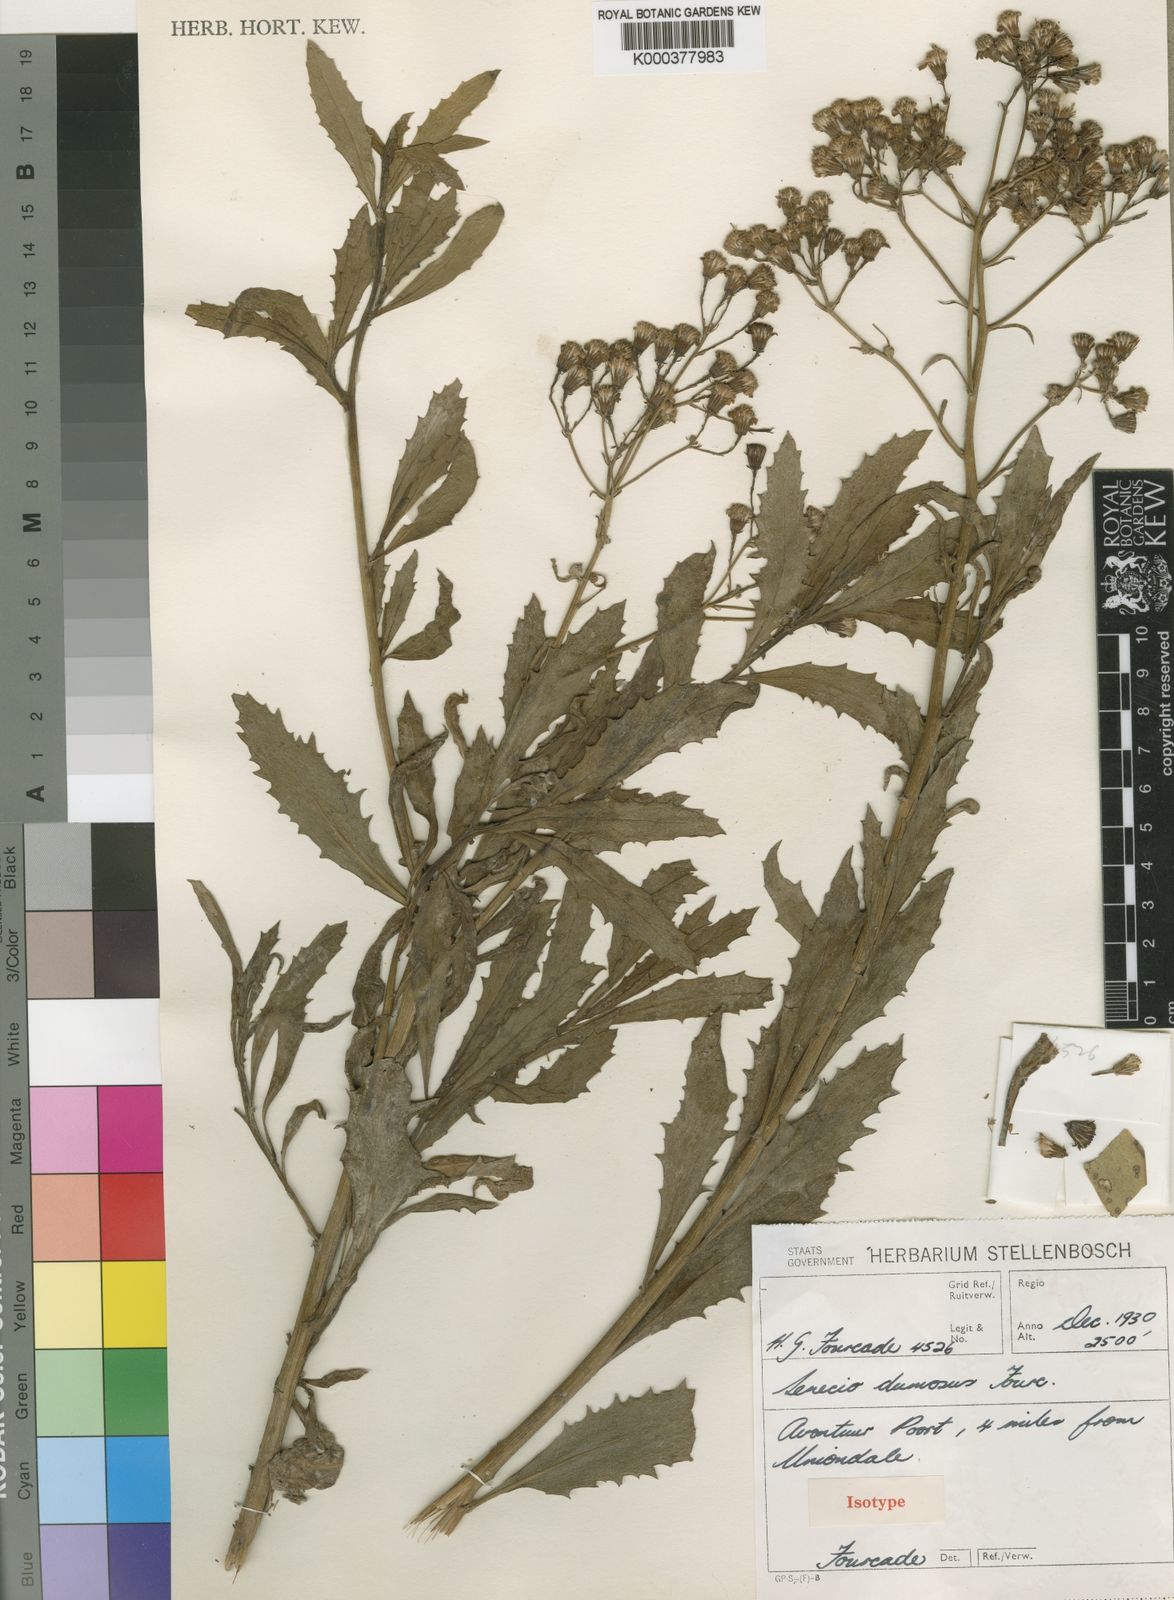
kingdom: Plantae
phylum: Tracheophyta
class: Magnoliopsida
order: Asterales
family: Asteraceae
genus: Senecio
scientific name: Senecio dumosus
